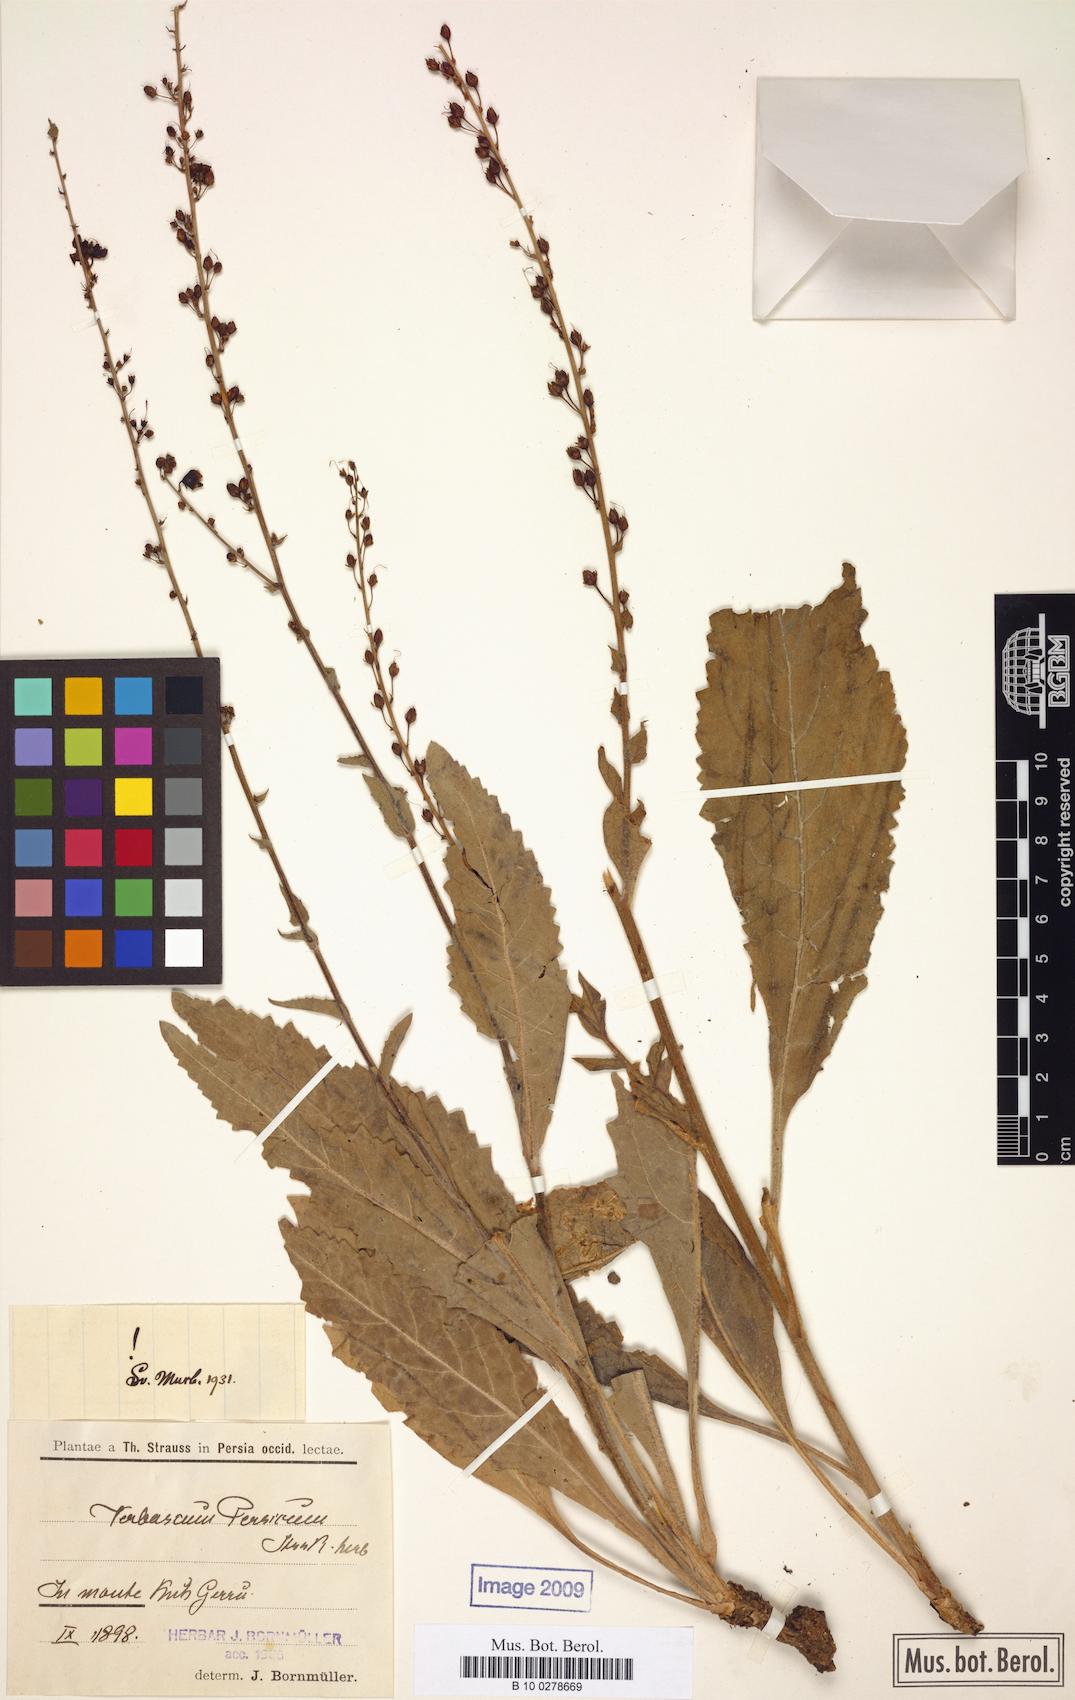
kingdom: Plantae
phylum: Tracheophyta
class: Magnoliopsida
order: Lamiales
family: Scrophulariaceae
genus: Verbascum
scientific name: Verbascum haussknechtianum
